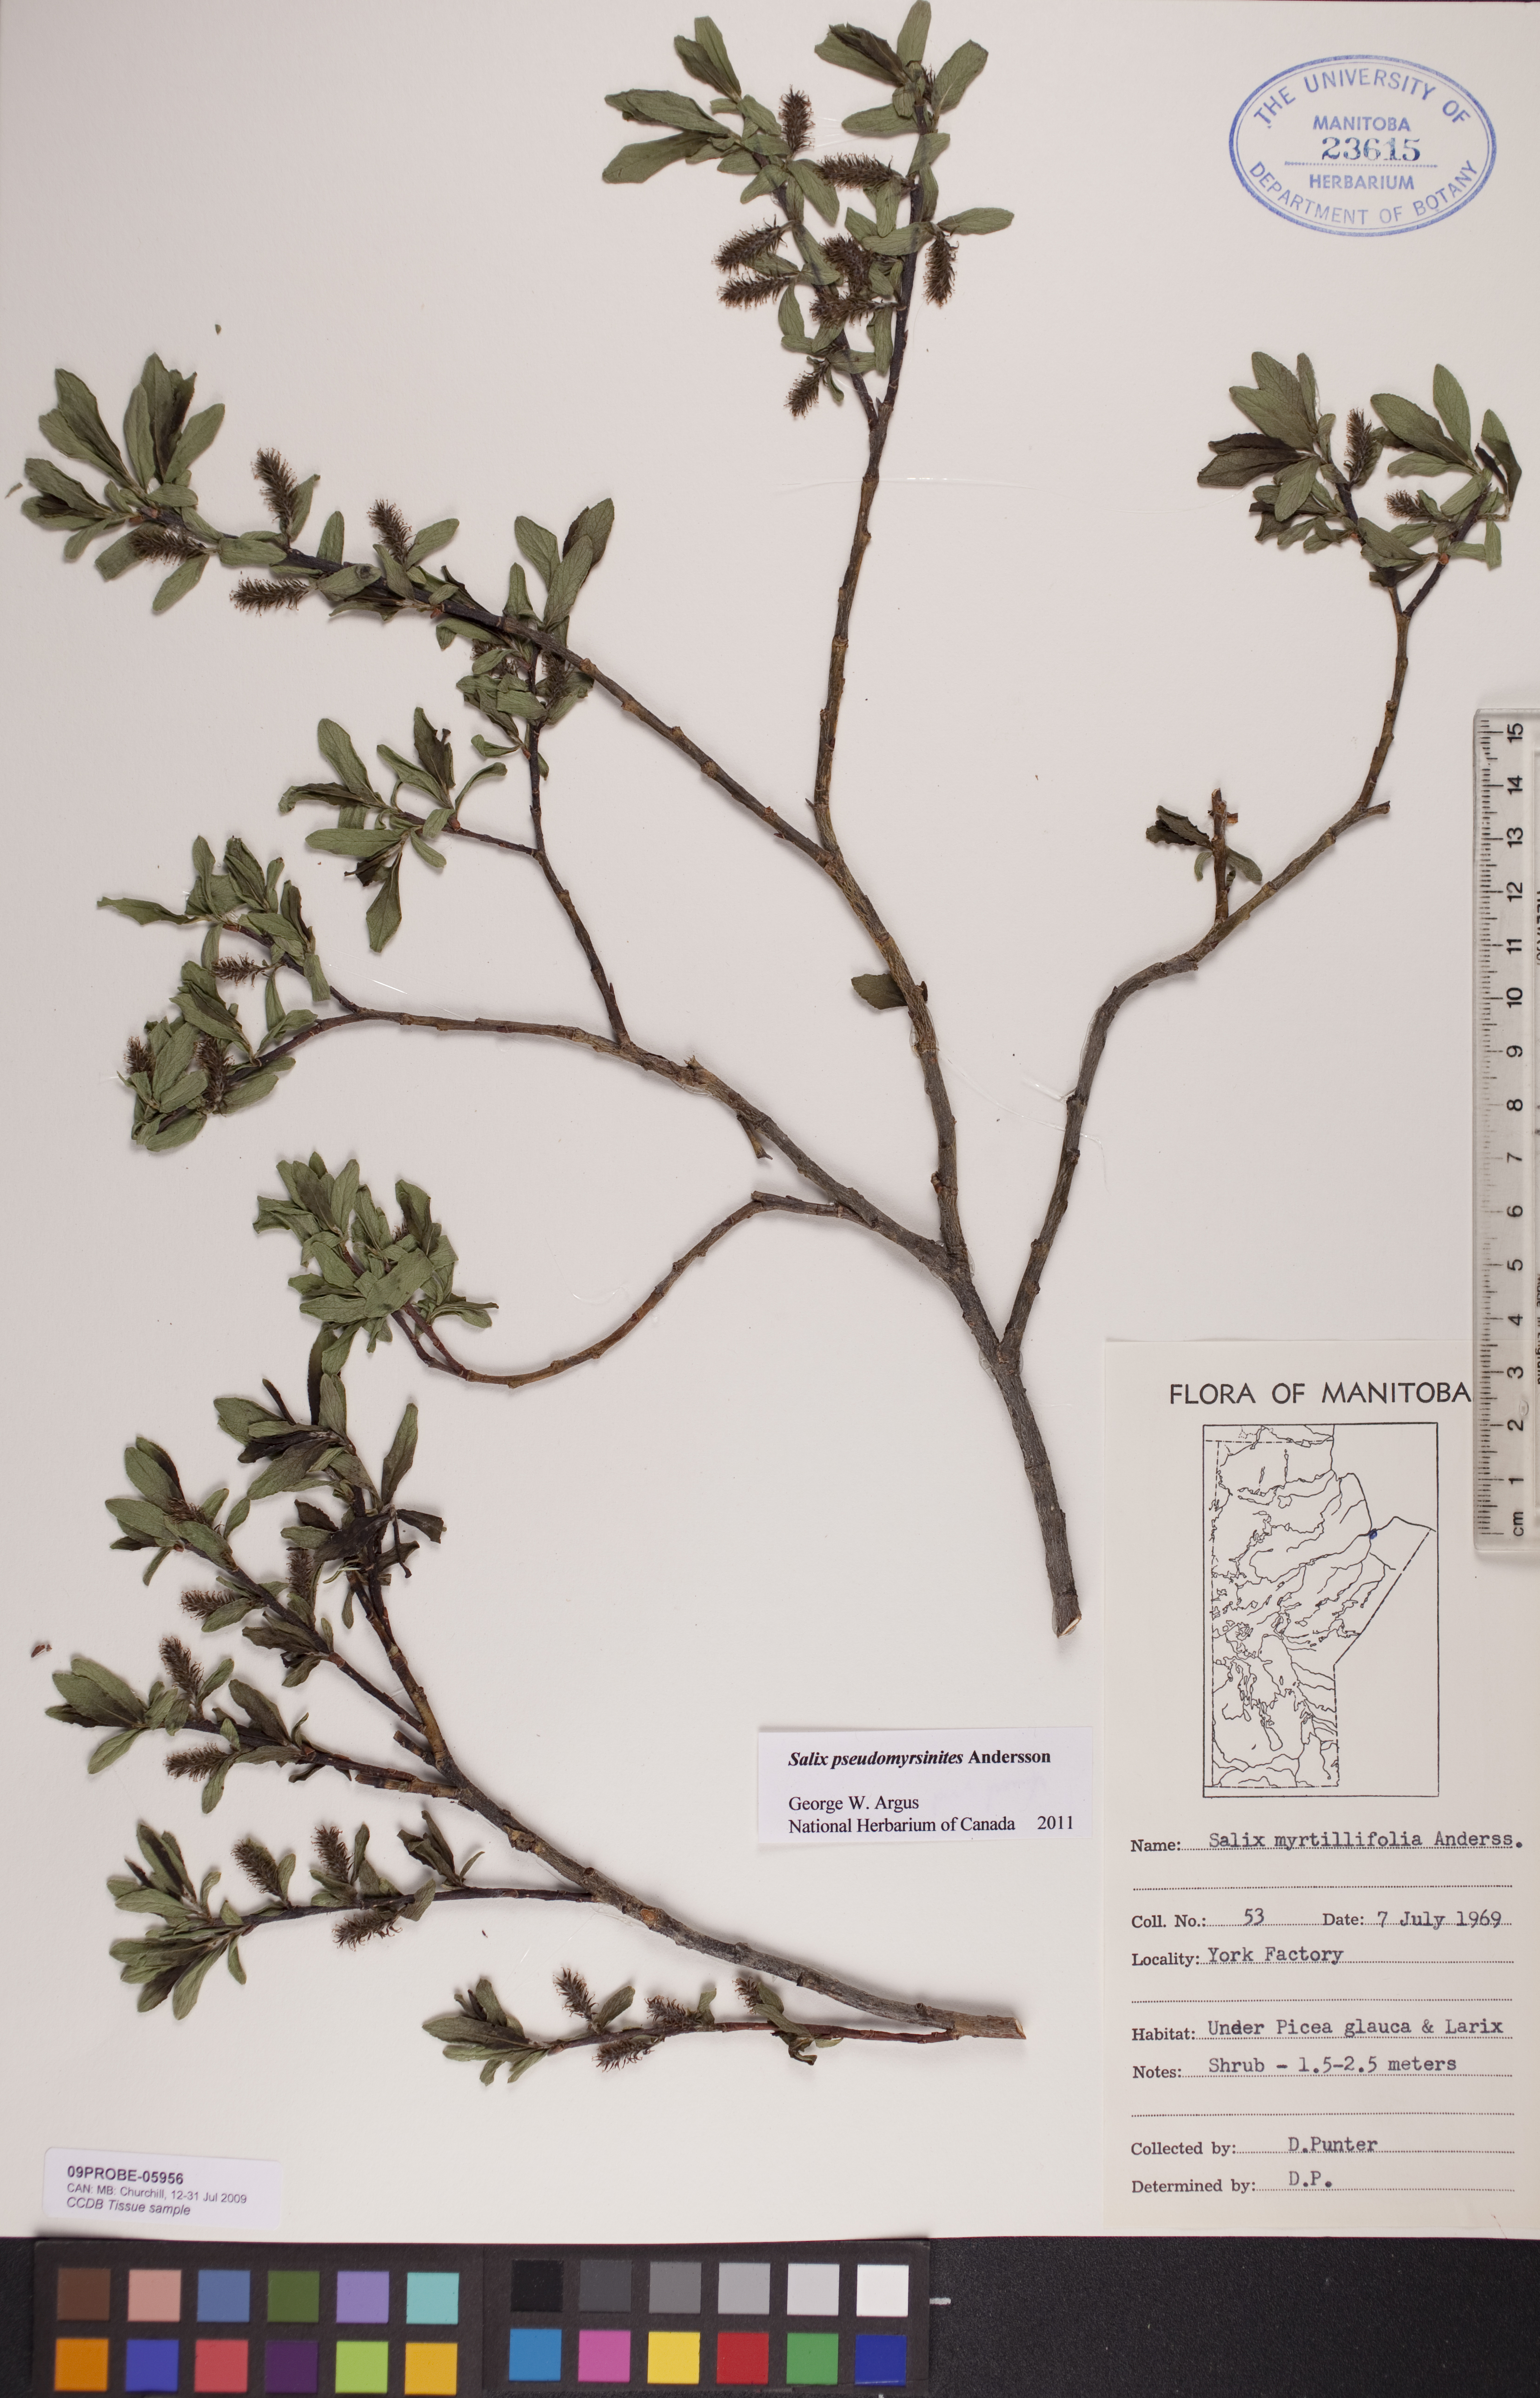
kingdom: Plantae
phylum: Tracheophyta
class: Magnoliopsida
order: Malpighiales
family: Salicaceae
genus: Salix
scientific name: Salix pseudomyrsinites
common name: Tall blueberry willow
